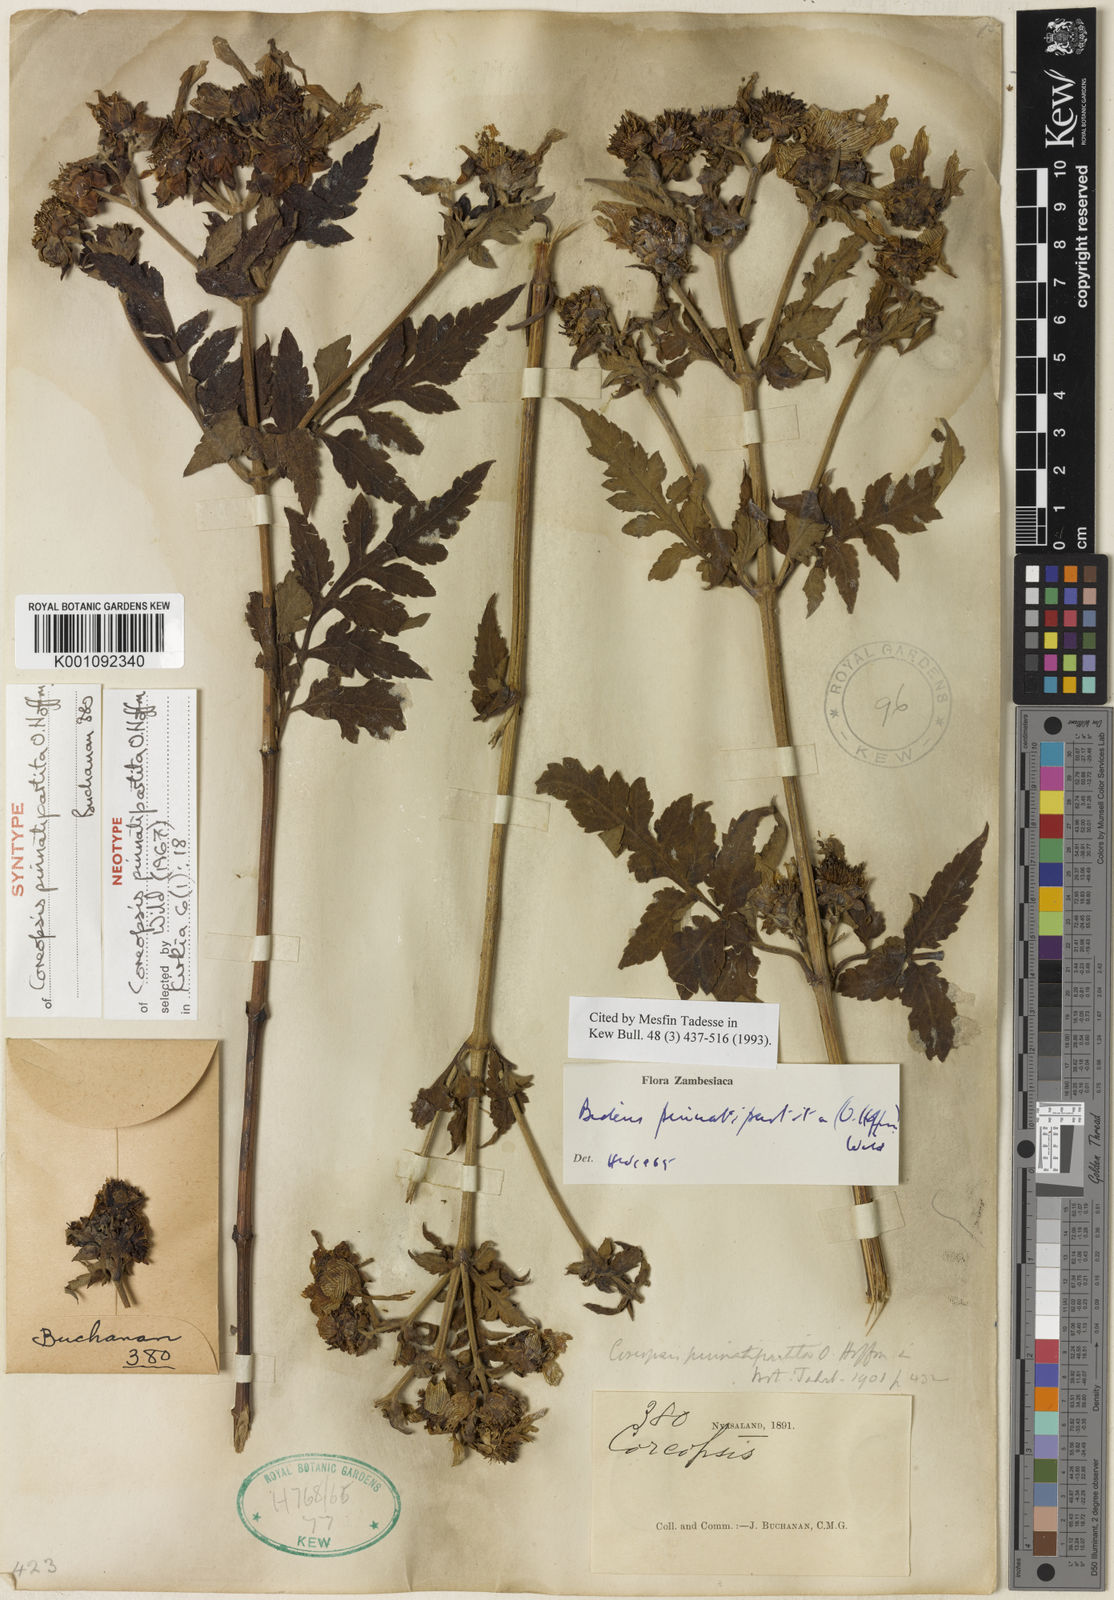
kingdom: Plantae
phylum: Tracheophyta
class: Magnoliopsida
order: Asterales
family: Asteraceae
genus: Bidens
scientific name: Bidens pinnatipartita
